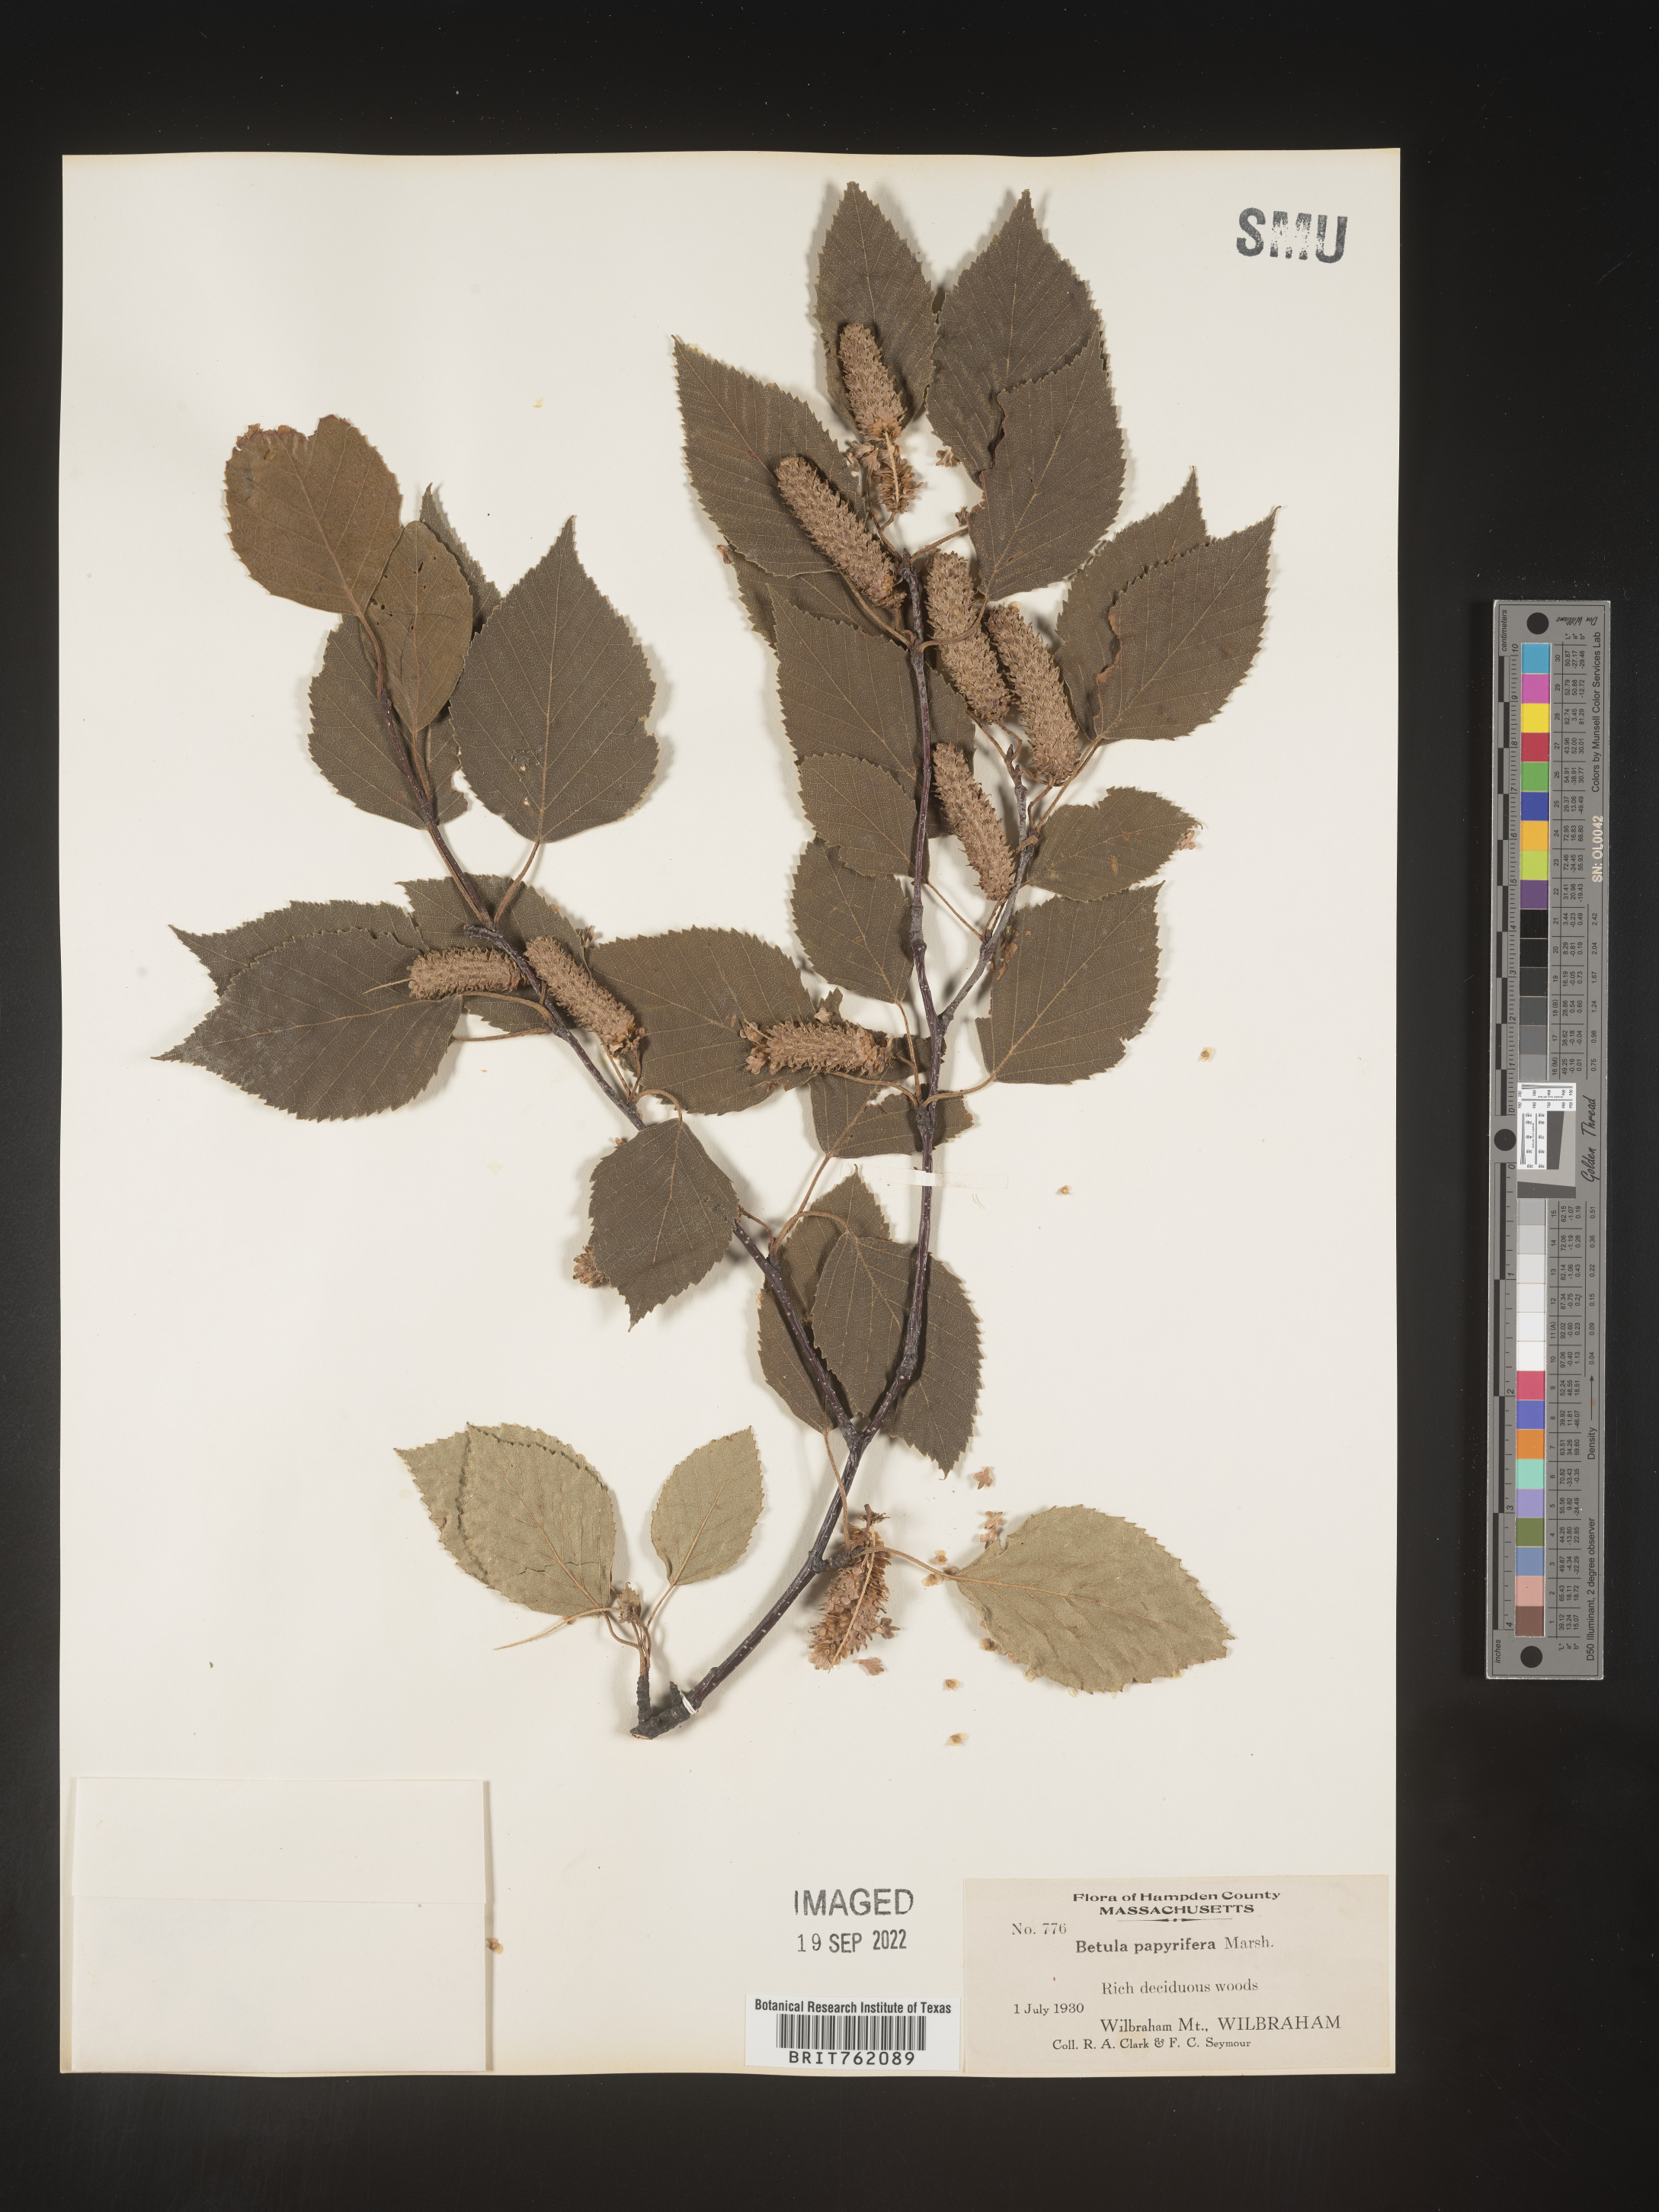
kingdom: Plantae
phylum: Tracheophyta
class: Magnoliopsida
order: Fagales
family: Betulaceae
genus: Betula
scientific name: Betula papyrifera
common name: Paper birch
